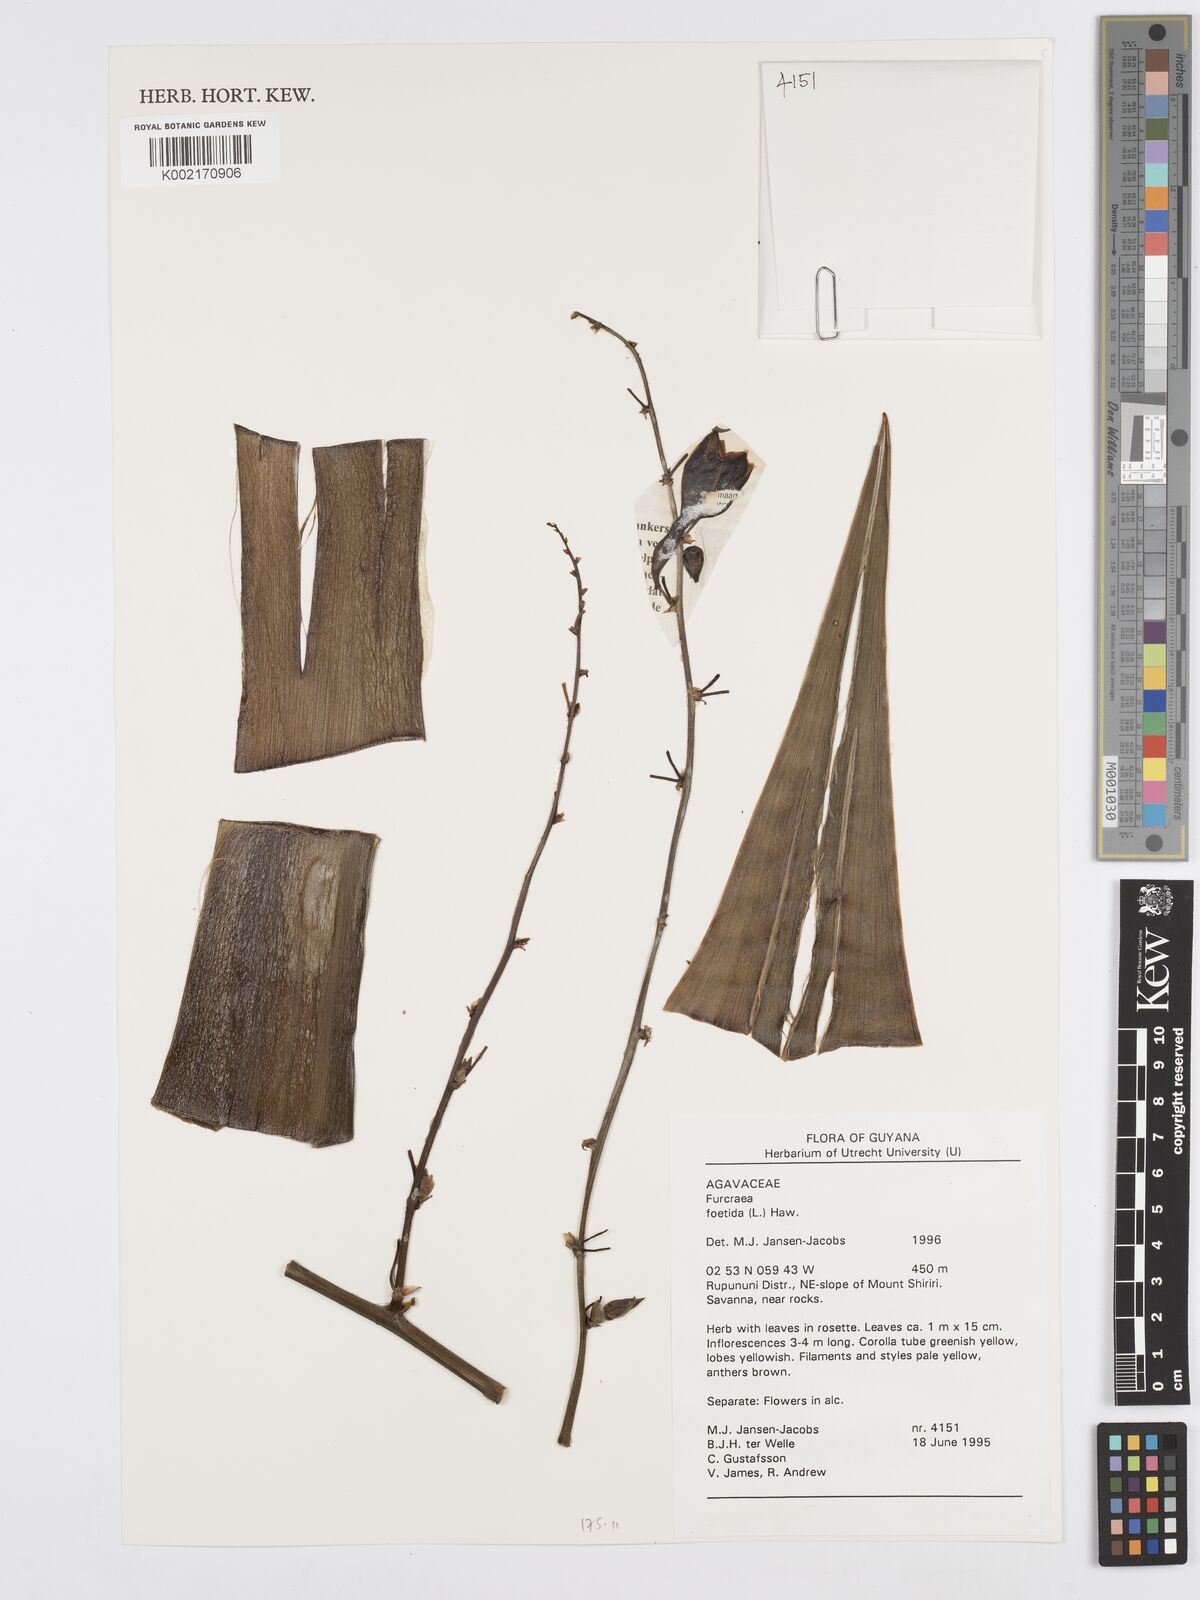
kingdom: Plantae
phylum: Tracheophyta
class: Liliopsida
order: Asparagales
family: Asparagaceae
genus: Furcraea
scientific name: Furcraea foetida
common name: Mauritius hemp
